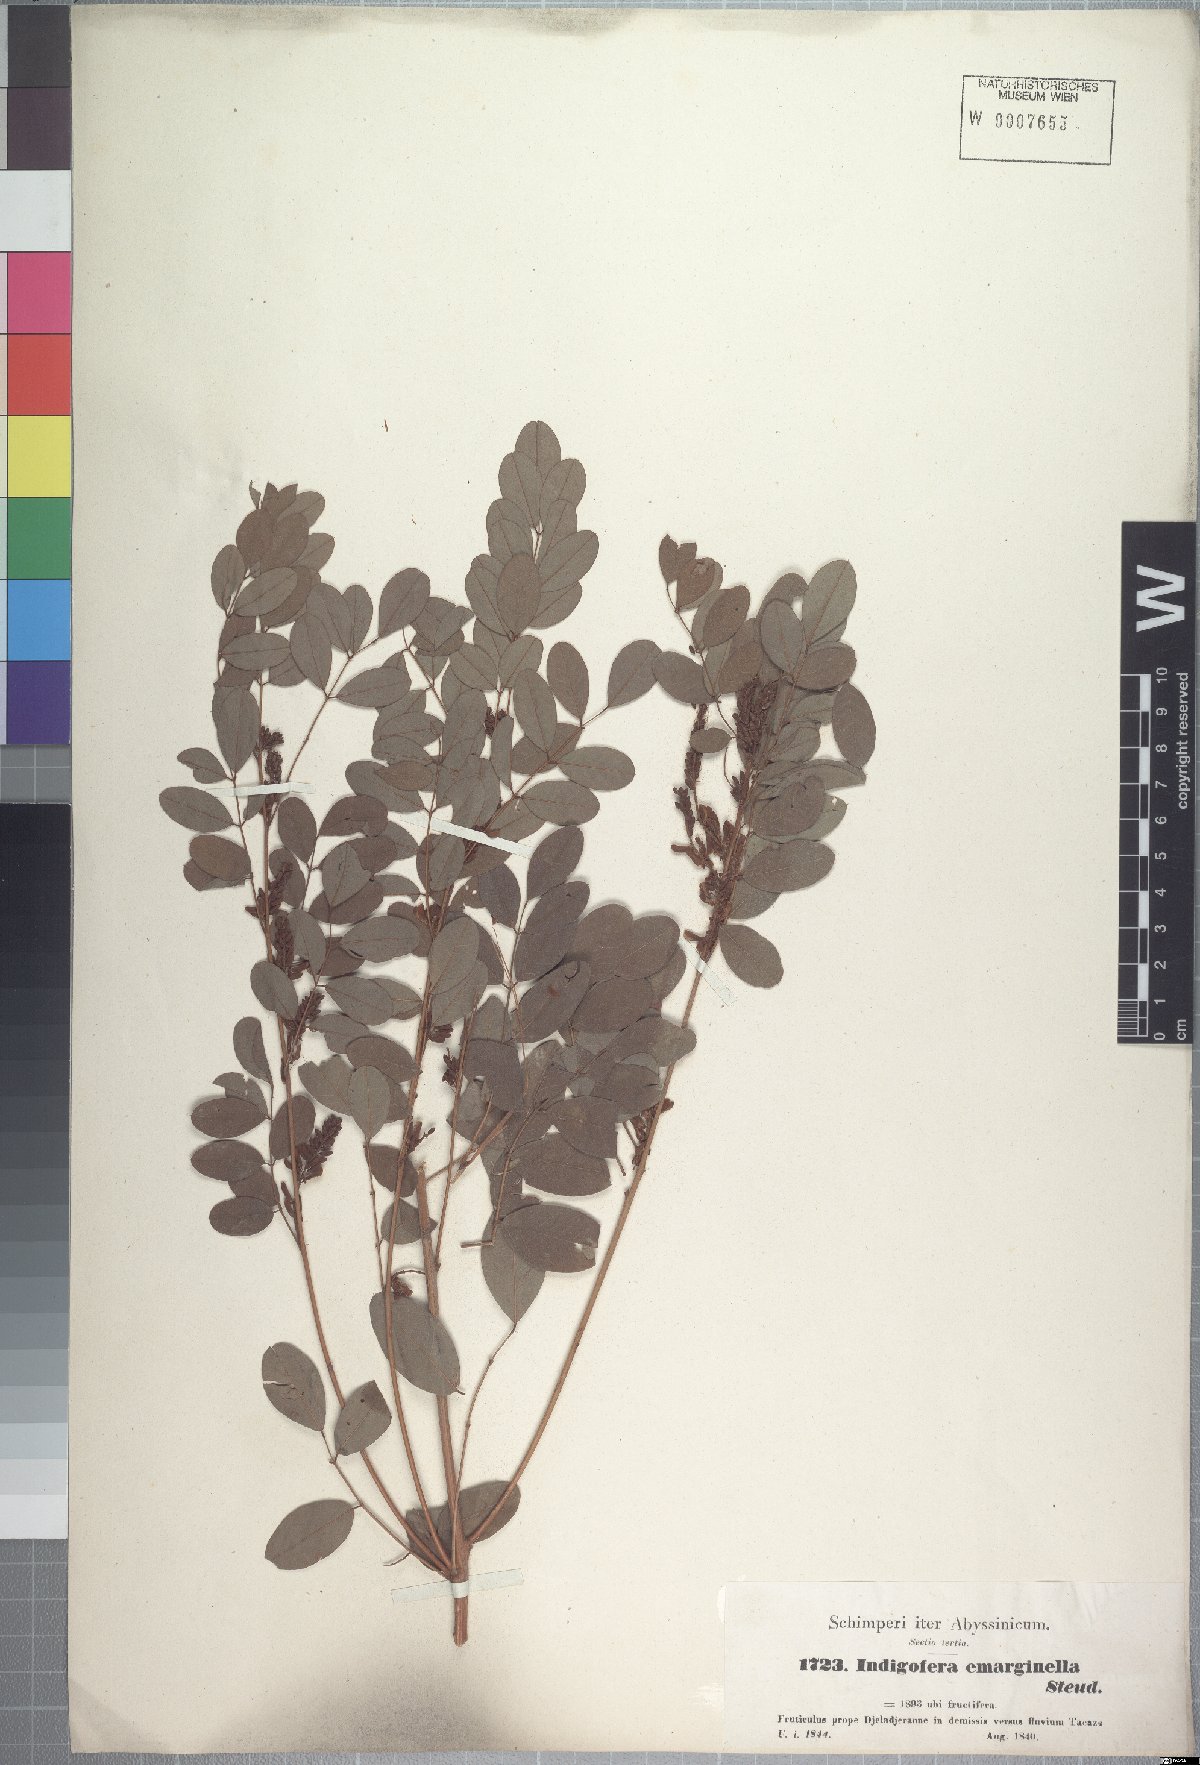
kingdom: Plantae
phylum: Tracheophyta
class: Magnoliopsida
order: Fabales
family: Fabaceae
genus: Indigofera
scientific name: Indigofera emarginella
